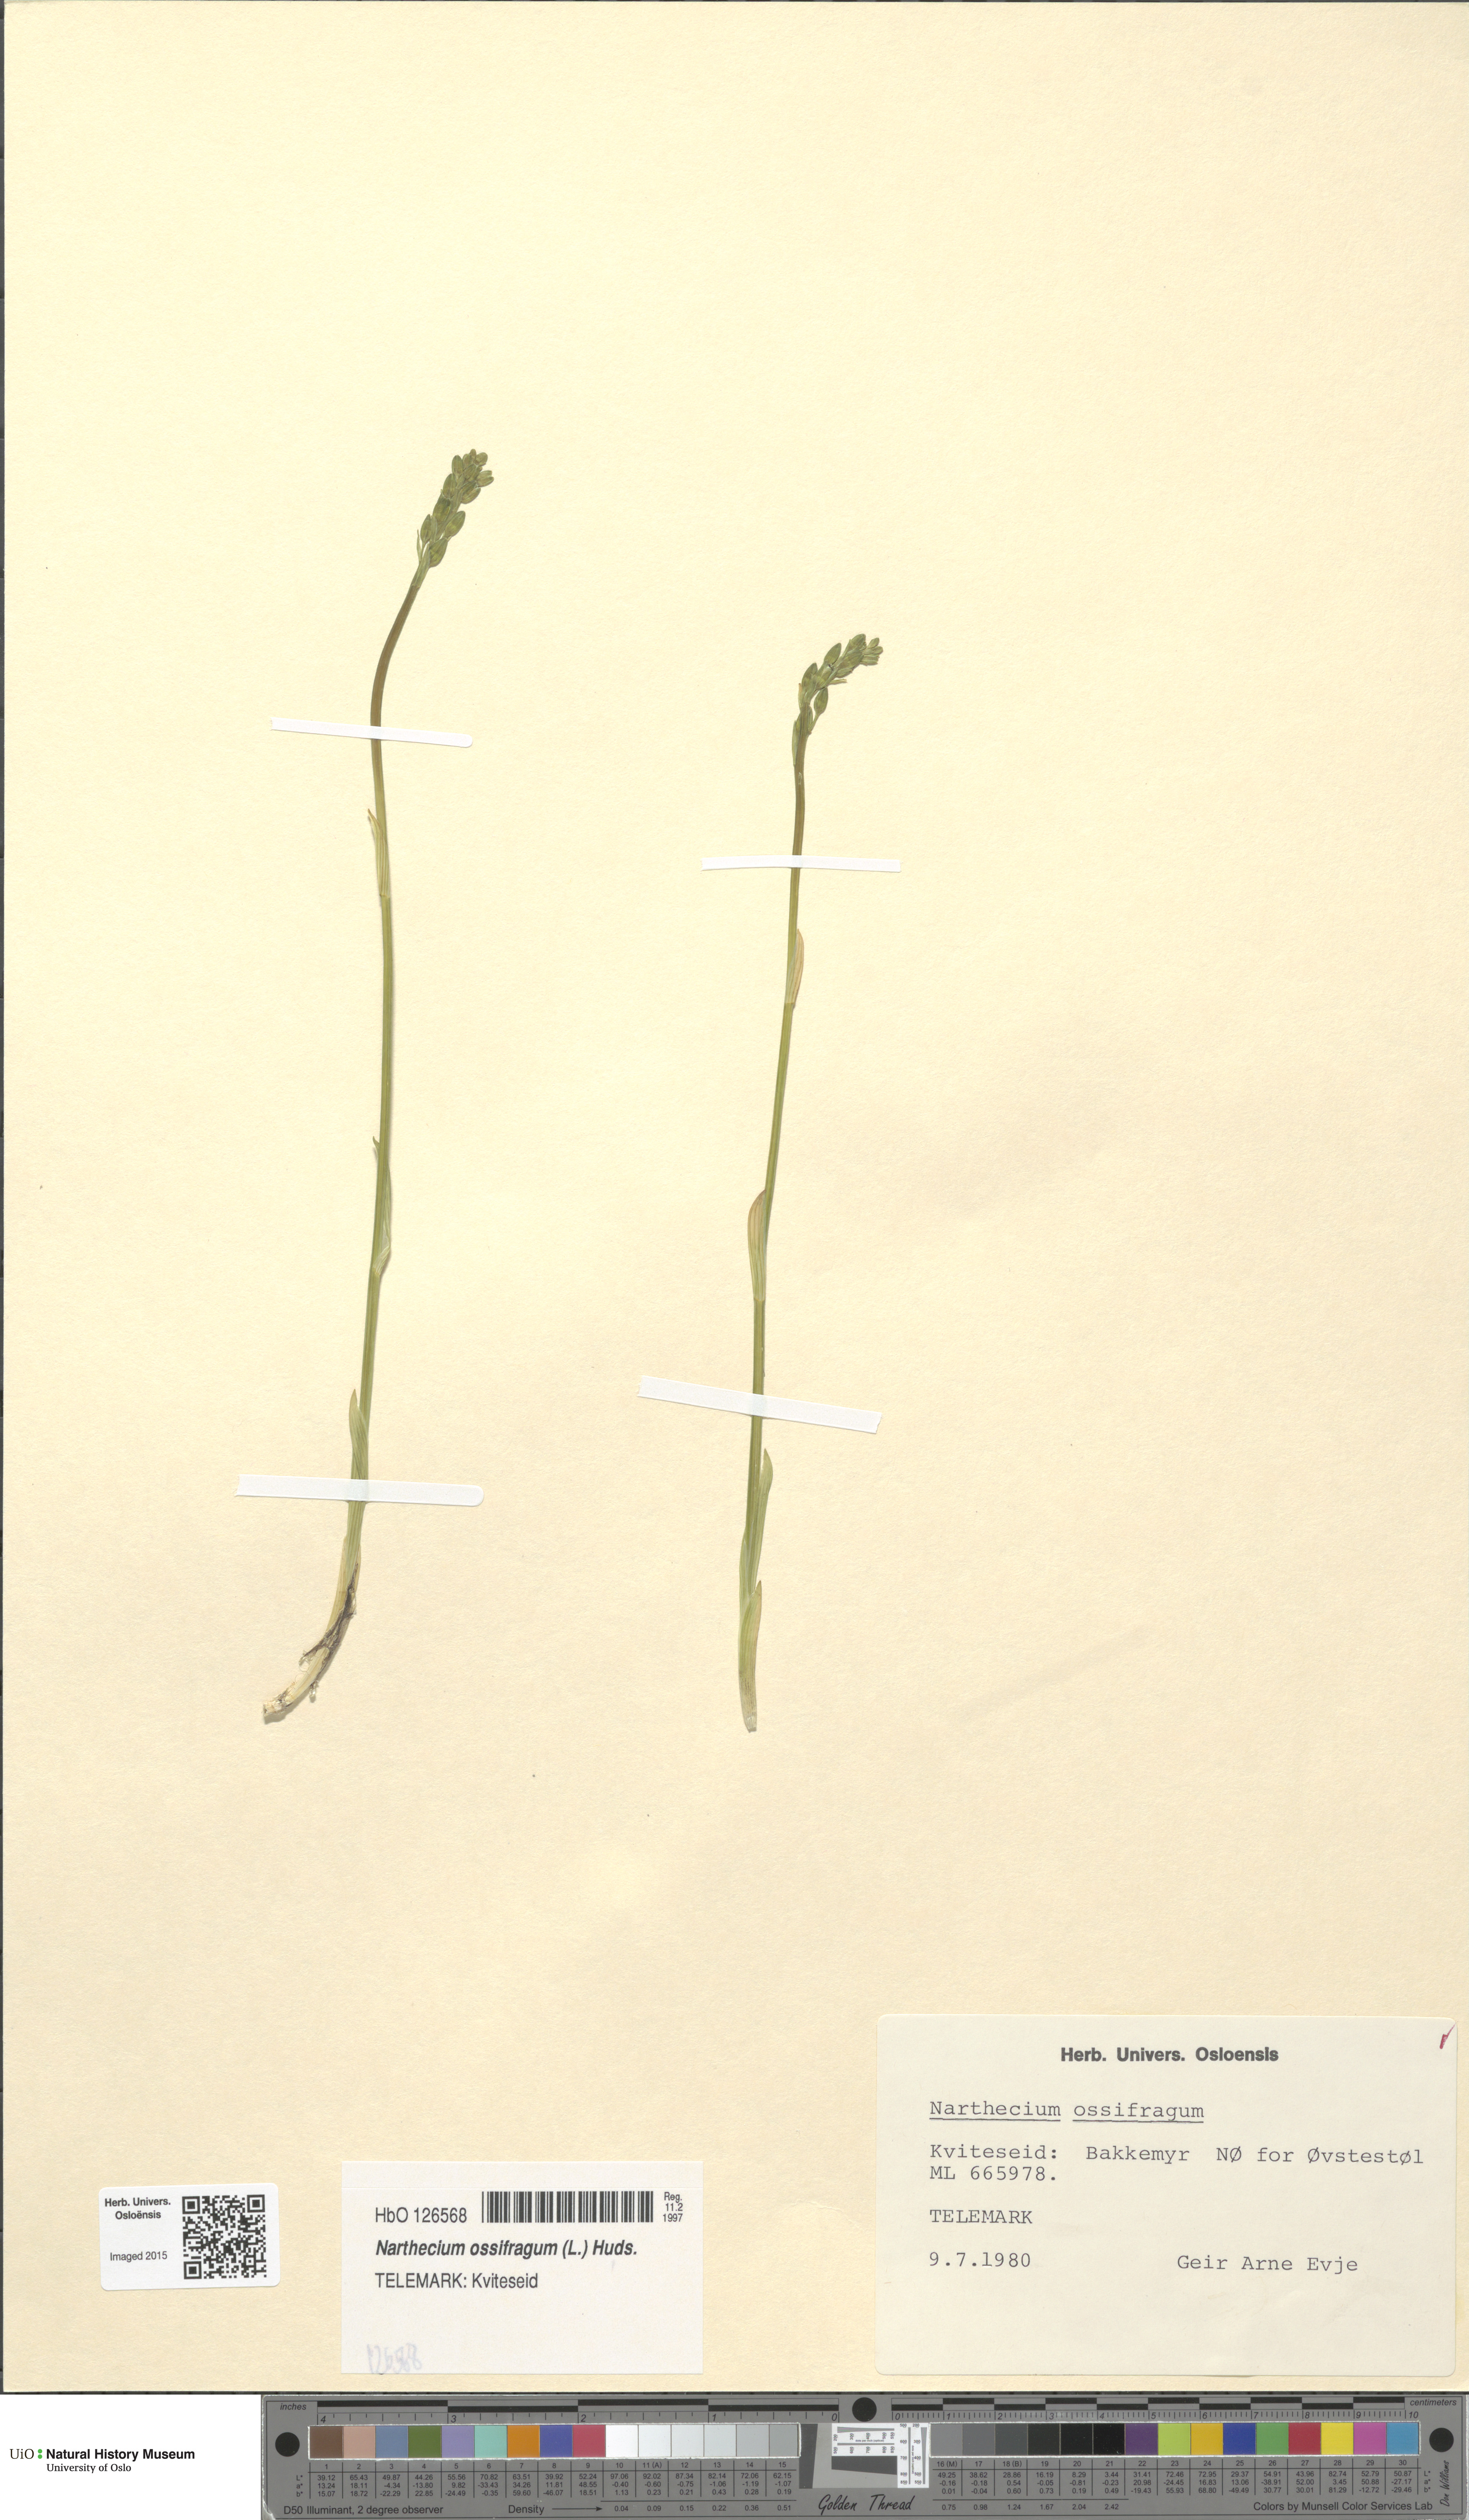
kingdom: Plantae
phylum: Tracheophyta
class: Liliopsida
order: Dioscoreales
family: Nartheciaceae
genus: Narthecium
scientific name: Narthecium ossifragum
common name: Bog asphodel
